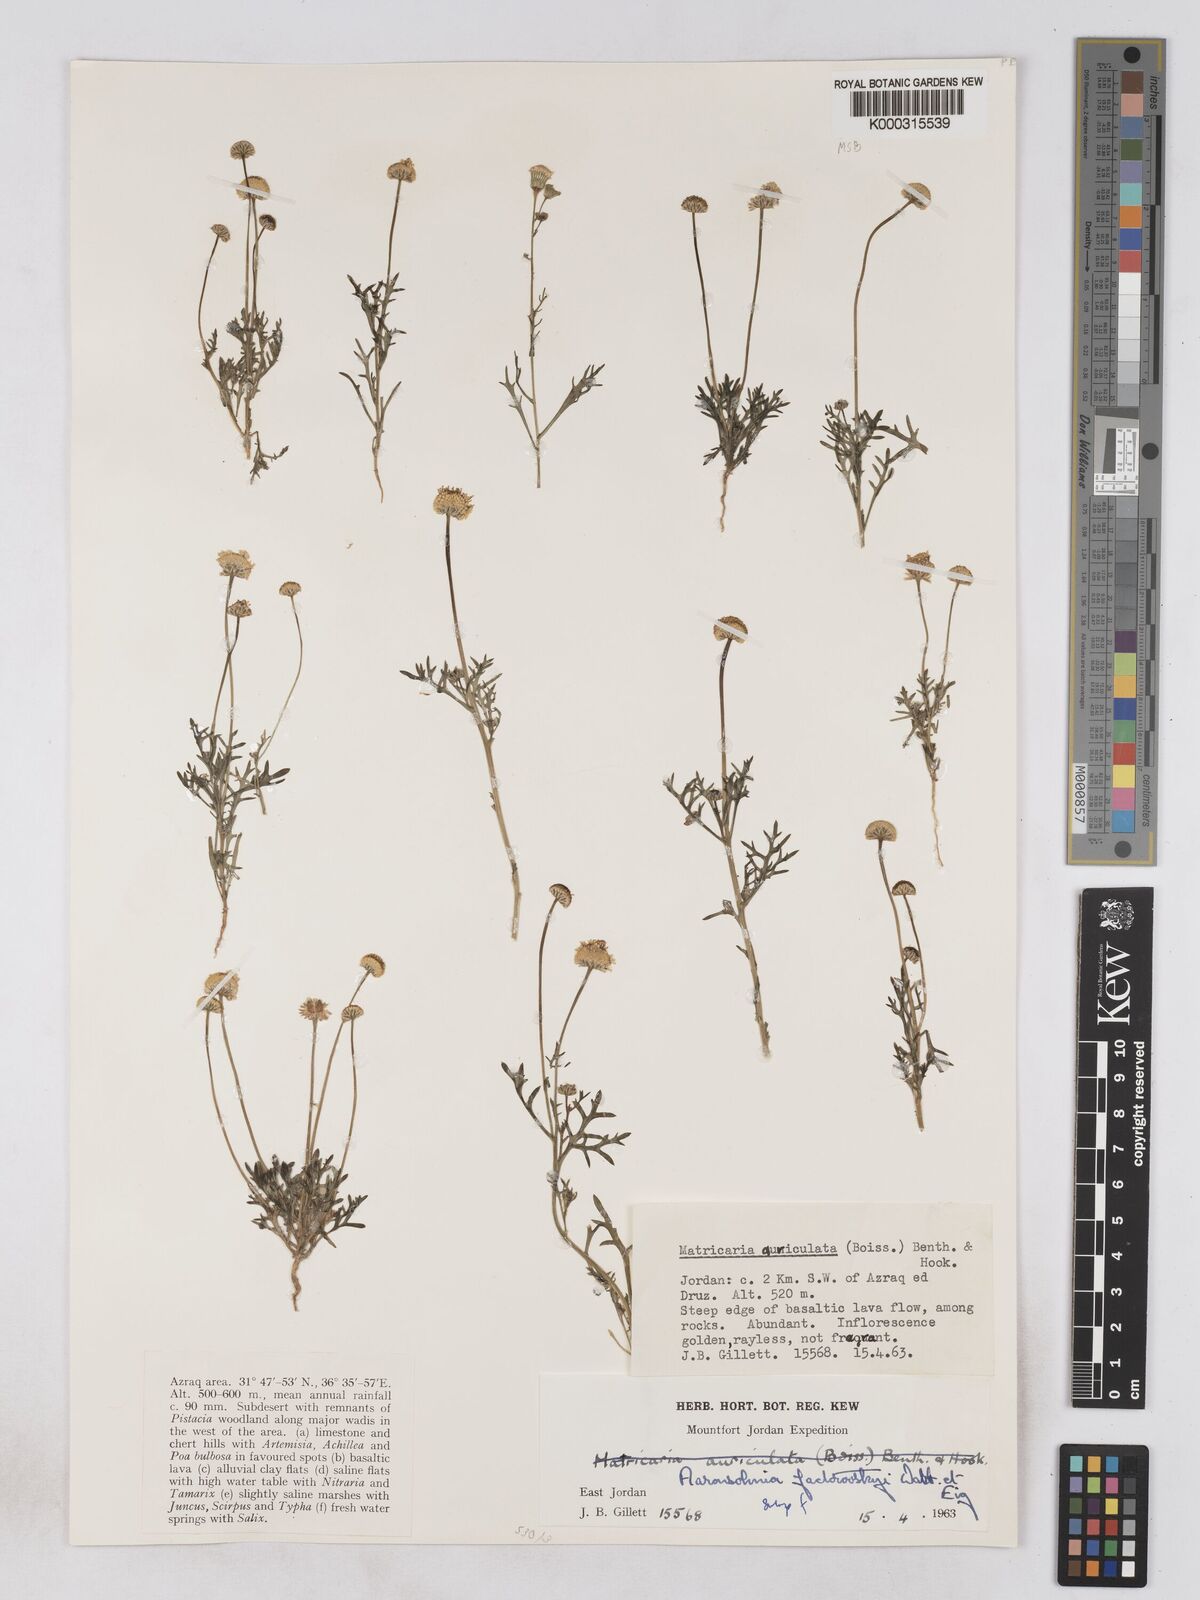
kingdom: Plantae
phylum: Tracheophyta
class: Magnoliopsida
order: Asterales
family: Asteraceae
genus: Otoglyphis
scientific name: Otoglyphis factorovskyi
